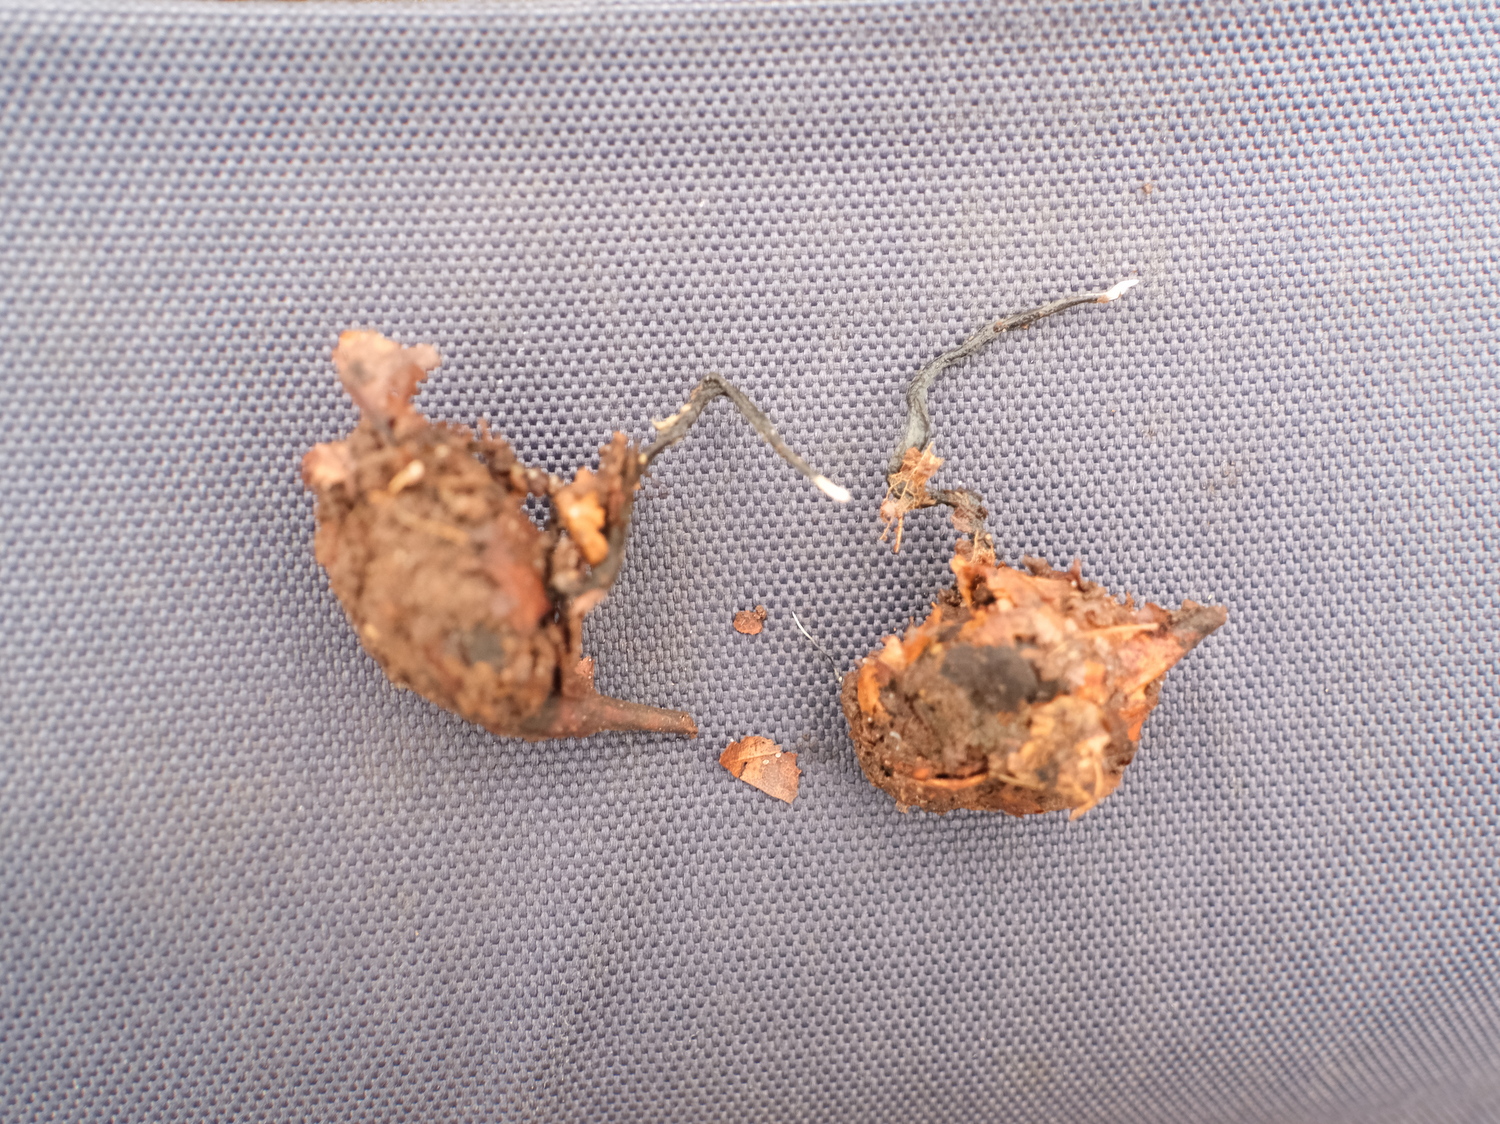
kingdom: Fungi
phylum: Ascomycota
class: Sordariomycetes
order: Xylariales
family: Xylariaceae
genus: Xylaria
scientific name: Xylaria carpophila
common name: bogskål-stødsvamp
